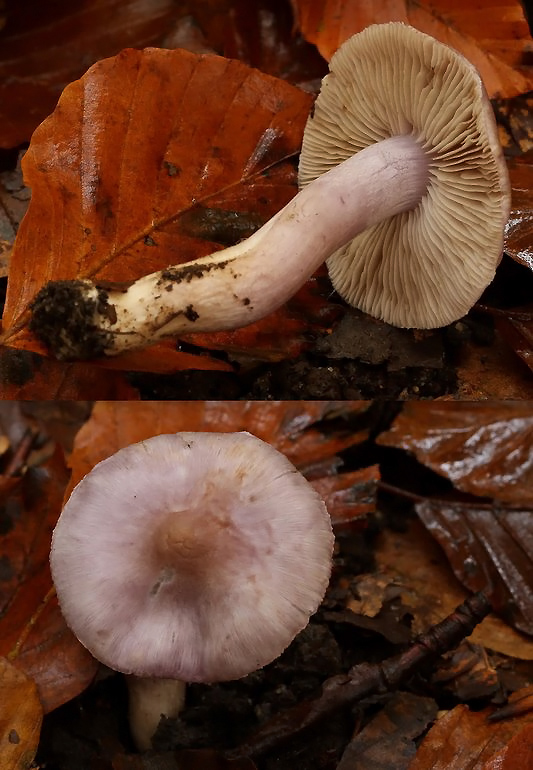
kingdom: Fungi
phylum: Basidiomycota
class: Agaricomycetes
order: Agaricales
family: Inocybaceae
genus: Inocybe
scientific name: Inocybe geophylla
